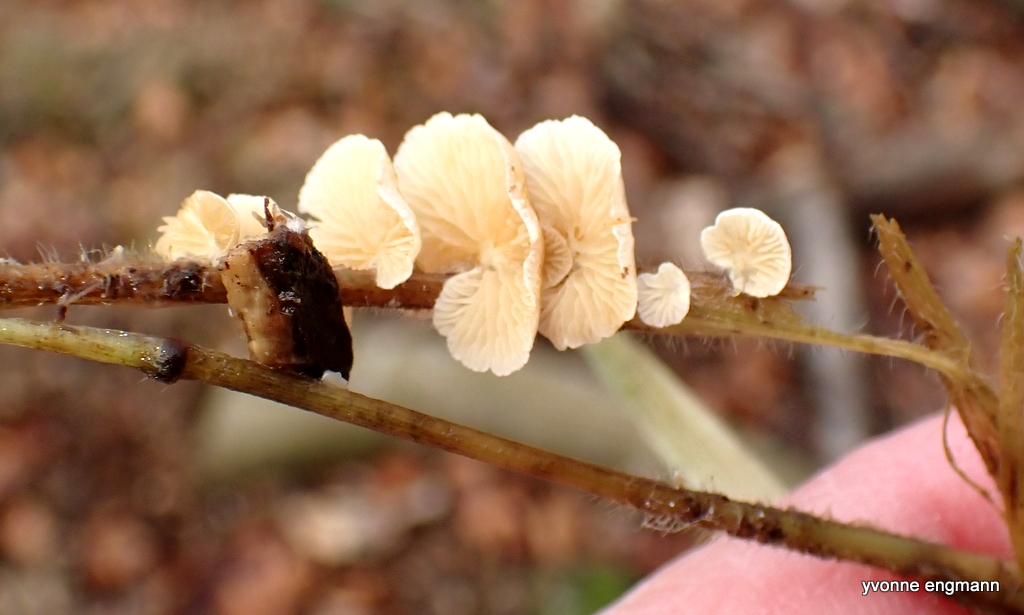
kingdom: Fungi
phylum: Basidiomycota
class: Agaricomycetes
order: Agaricales
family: Crepidotaceae
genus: Crepidotus
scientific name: Crepidotus
